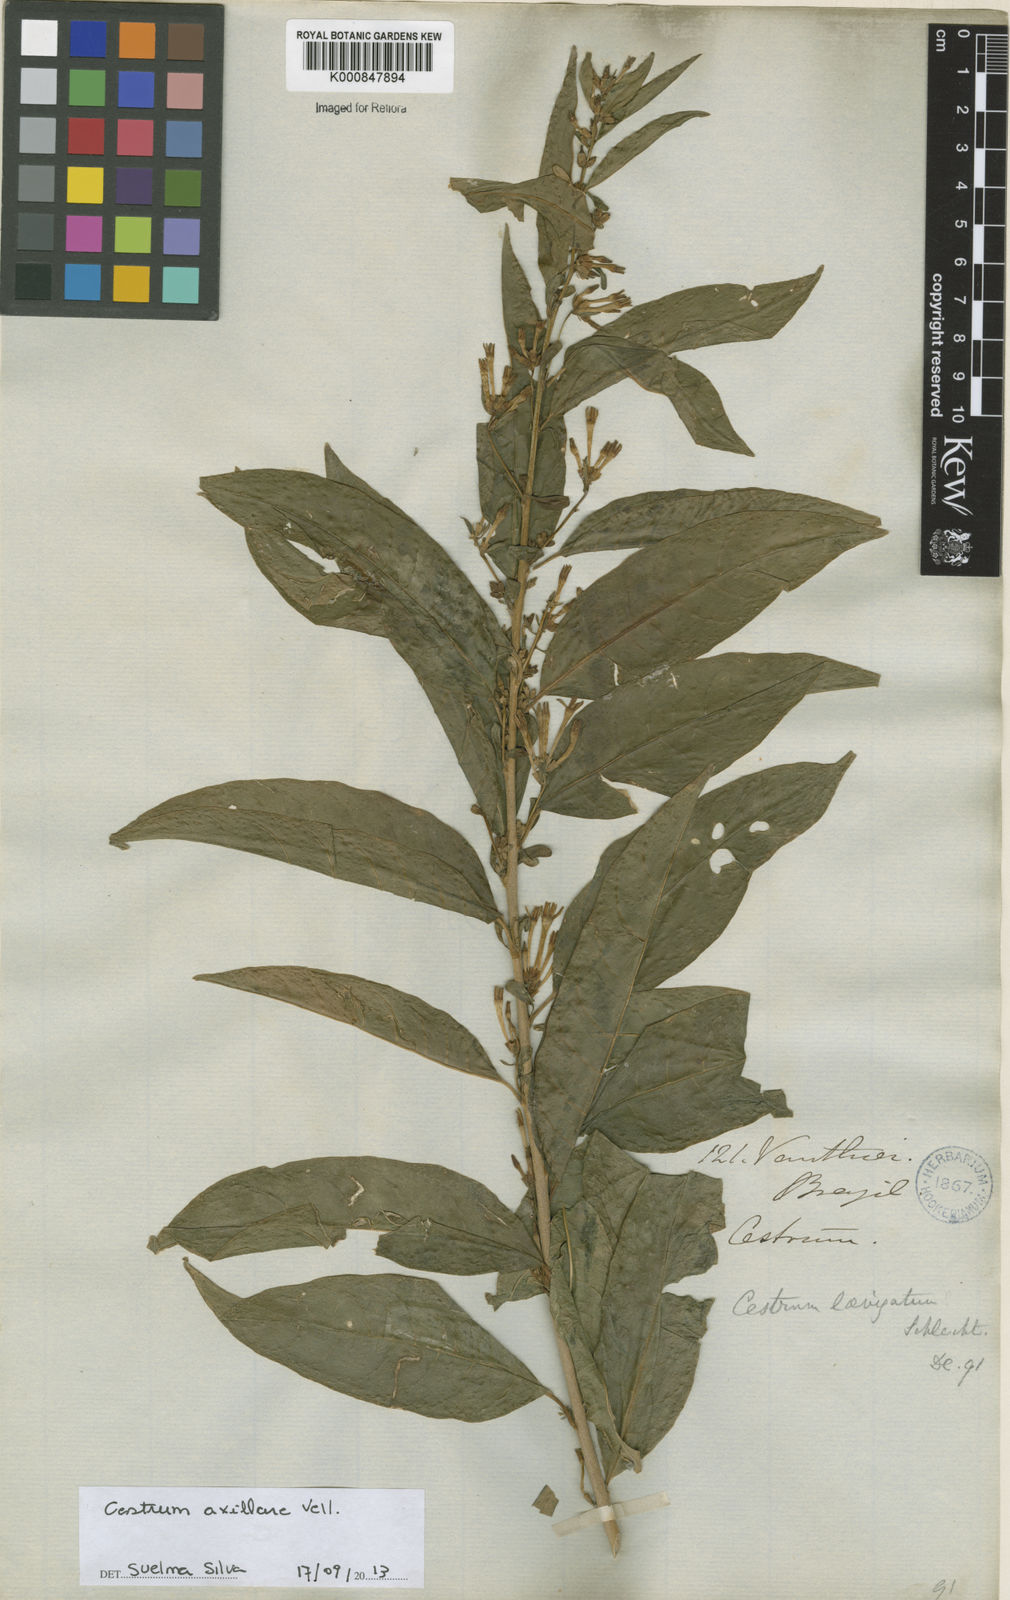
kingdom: Plantae
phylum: Tracheophyta
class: Magnoliopsida
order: Solanales
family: Solanaceae
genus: Cestrum
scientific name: Cestrum laevigatum
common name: Inkberry
